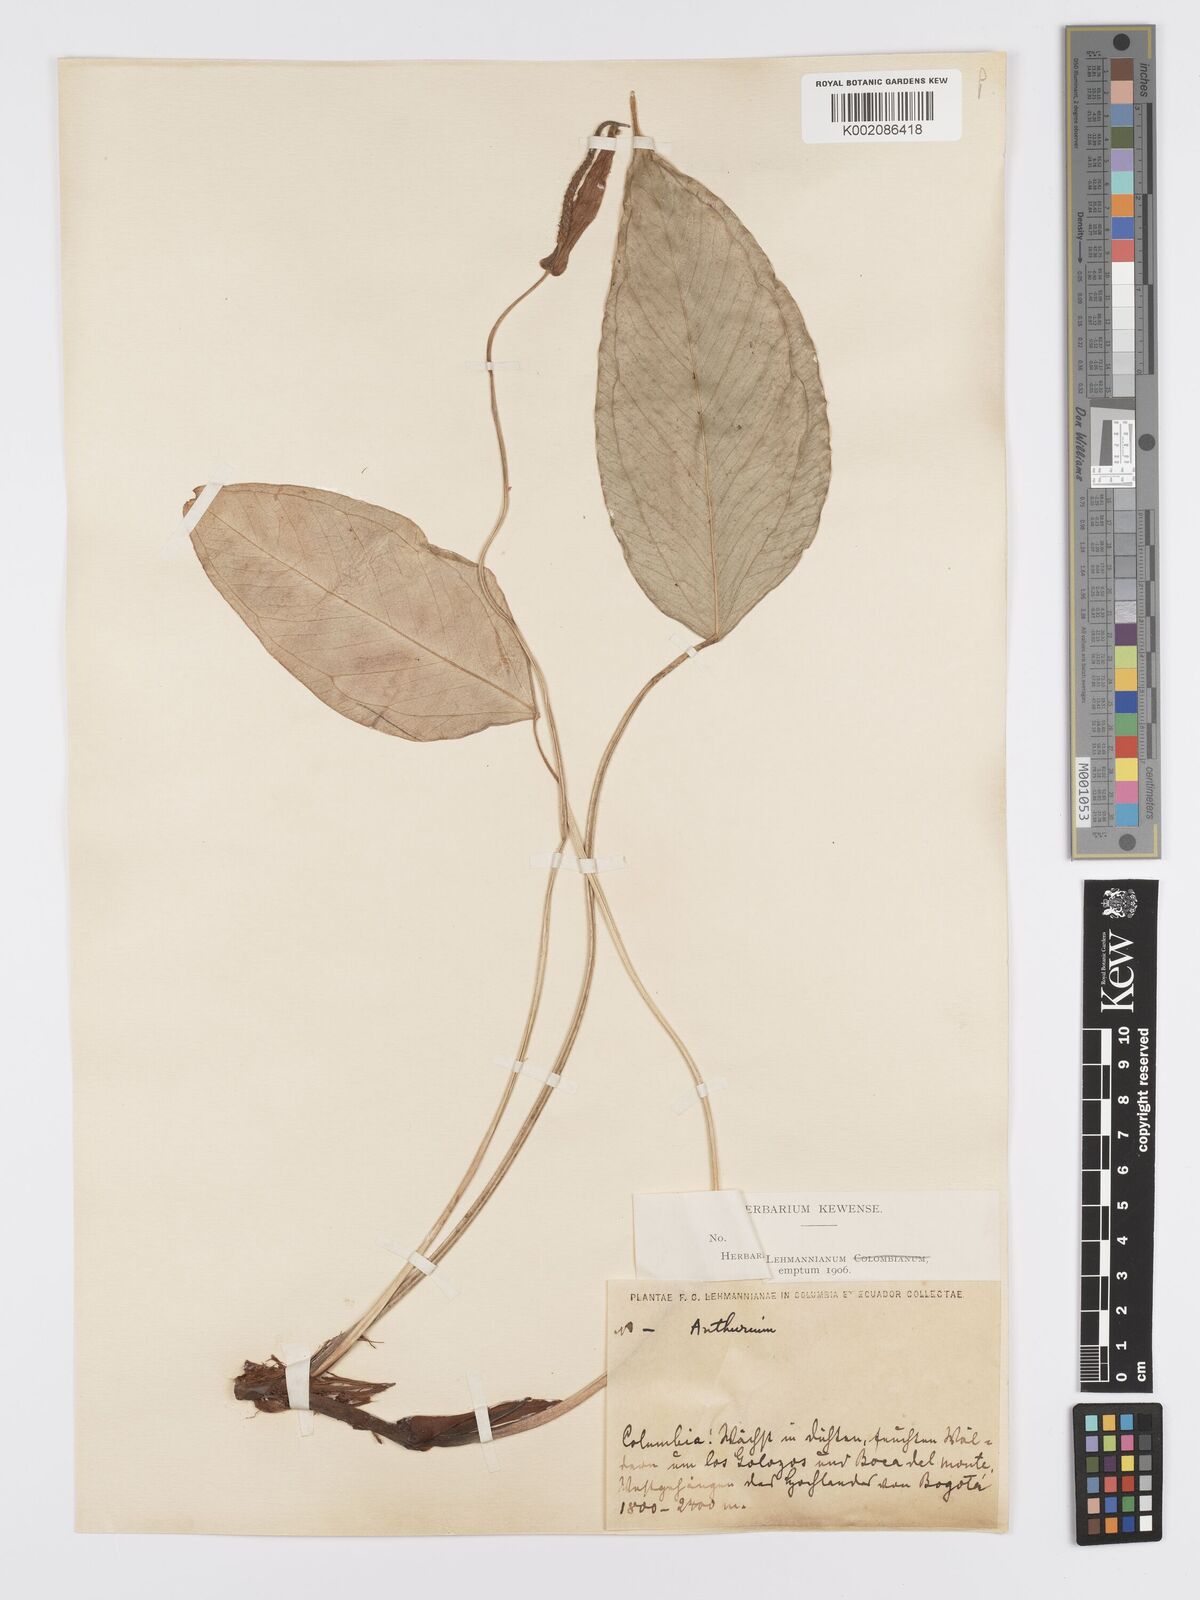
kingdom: Plantae
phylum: Tracheophyta
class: Liliopsida
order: Alismatales
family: Araceae
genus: Anthurium
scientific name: Anthurium longegeniculatum
